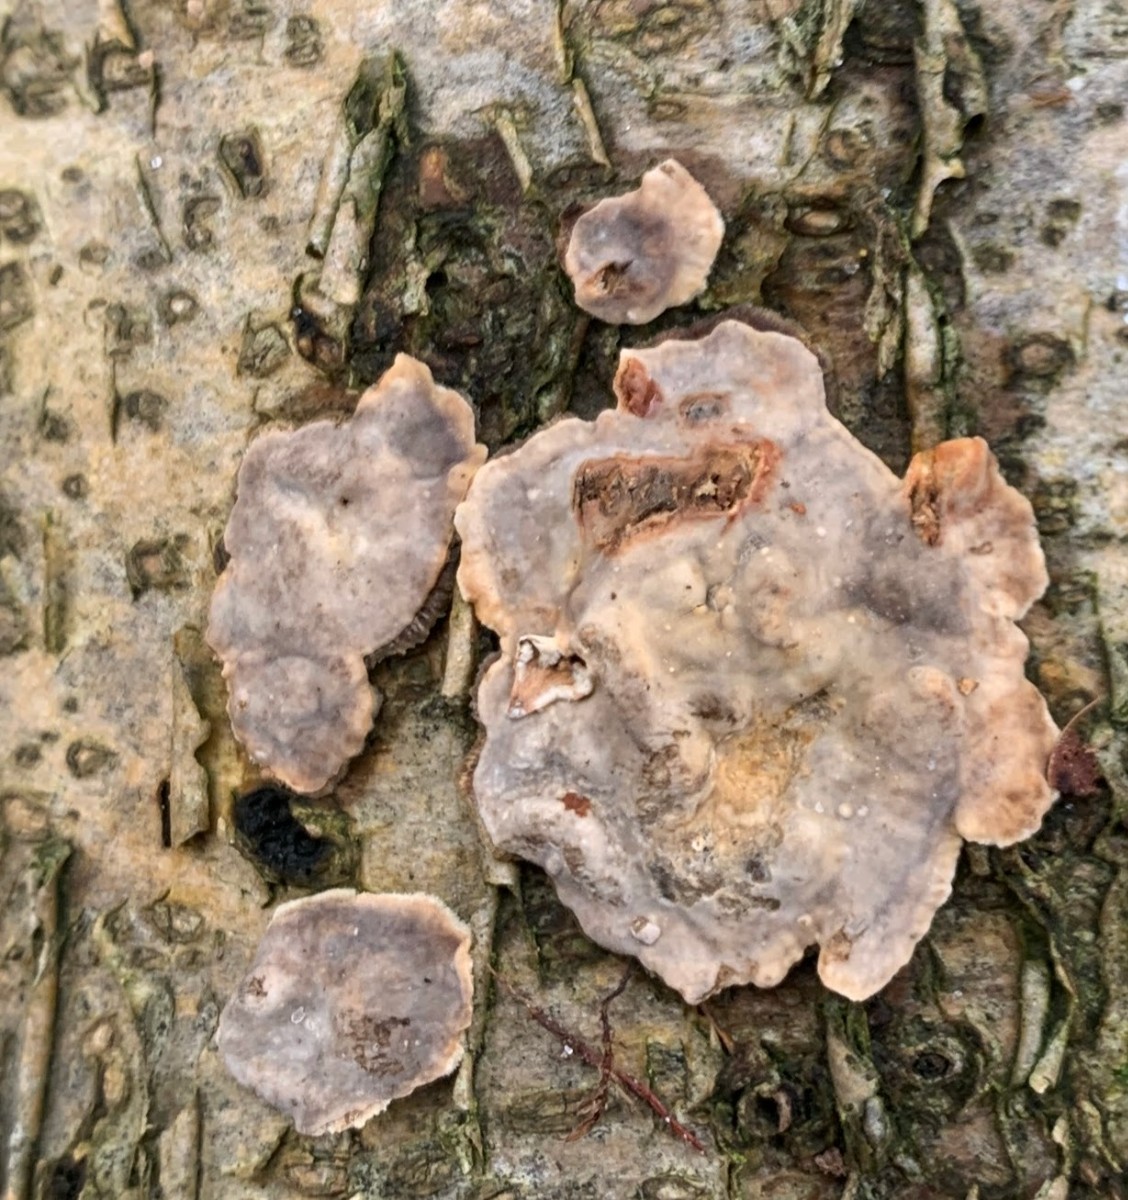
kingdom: Fungi
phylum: Basidiomycota
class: Agaricomycetes
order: Russulales
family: Stereaceae
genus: Stereum
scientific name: Stereum rugosum
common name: rynket lædersvamp
